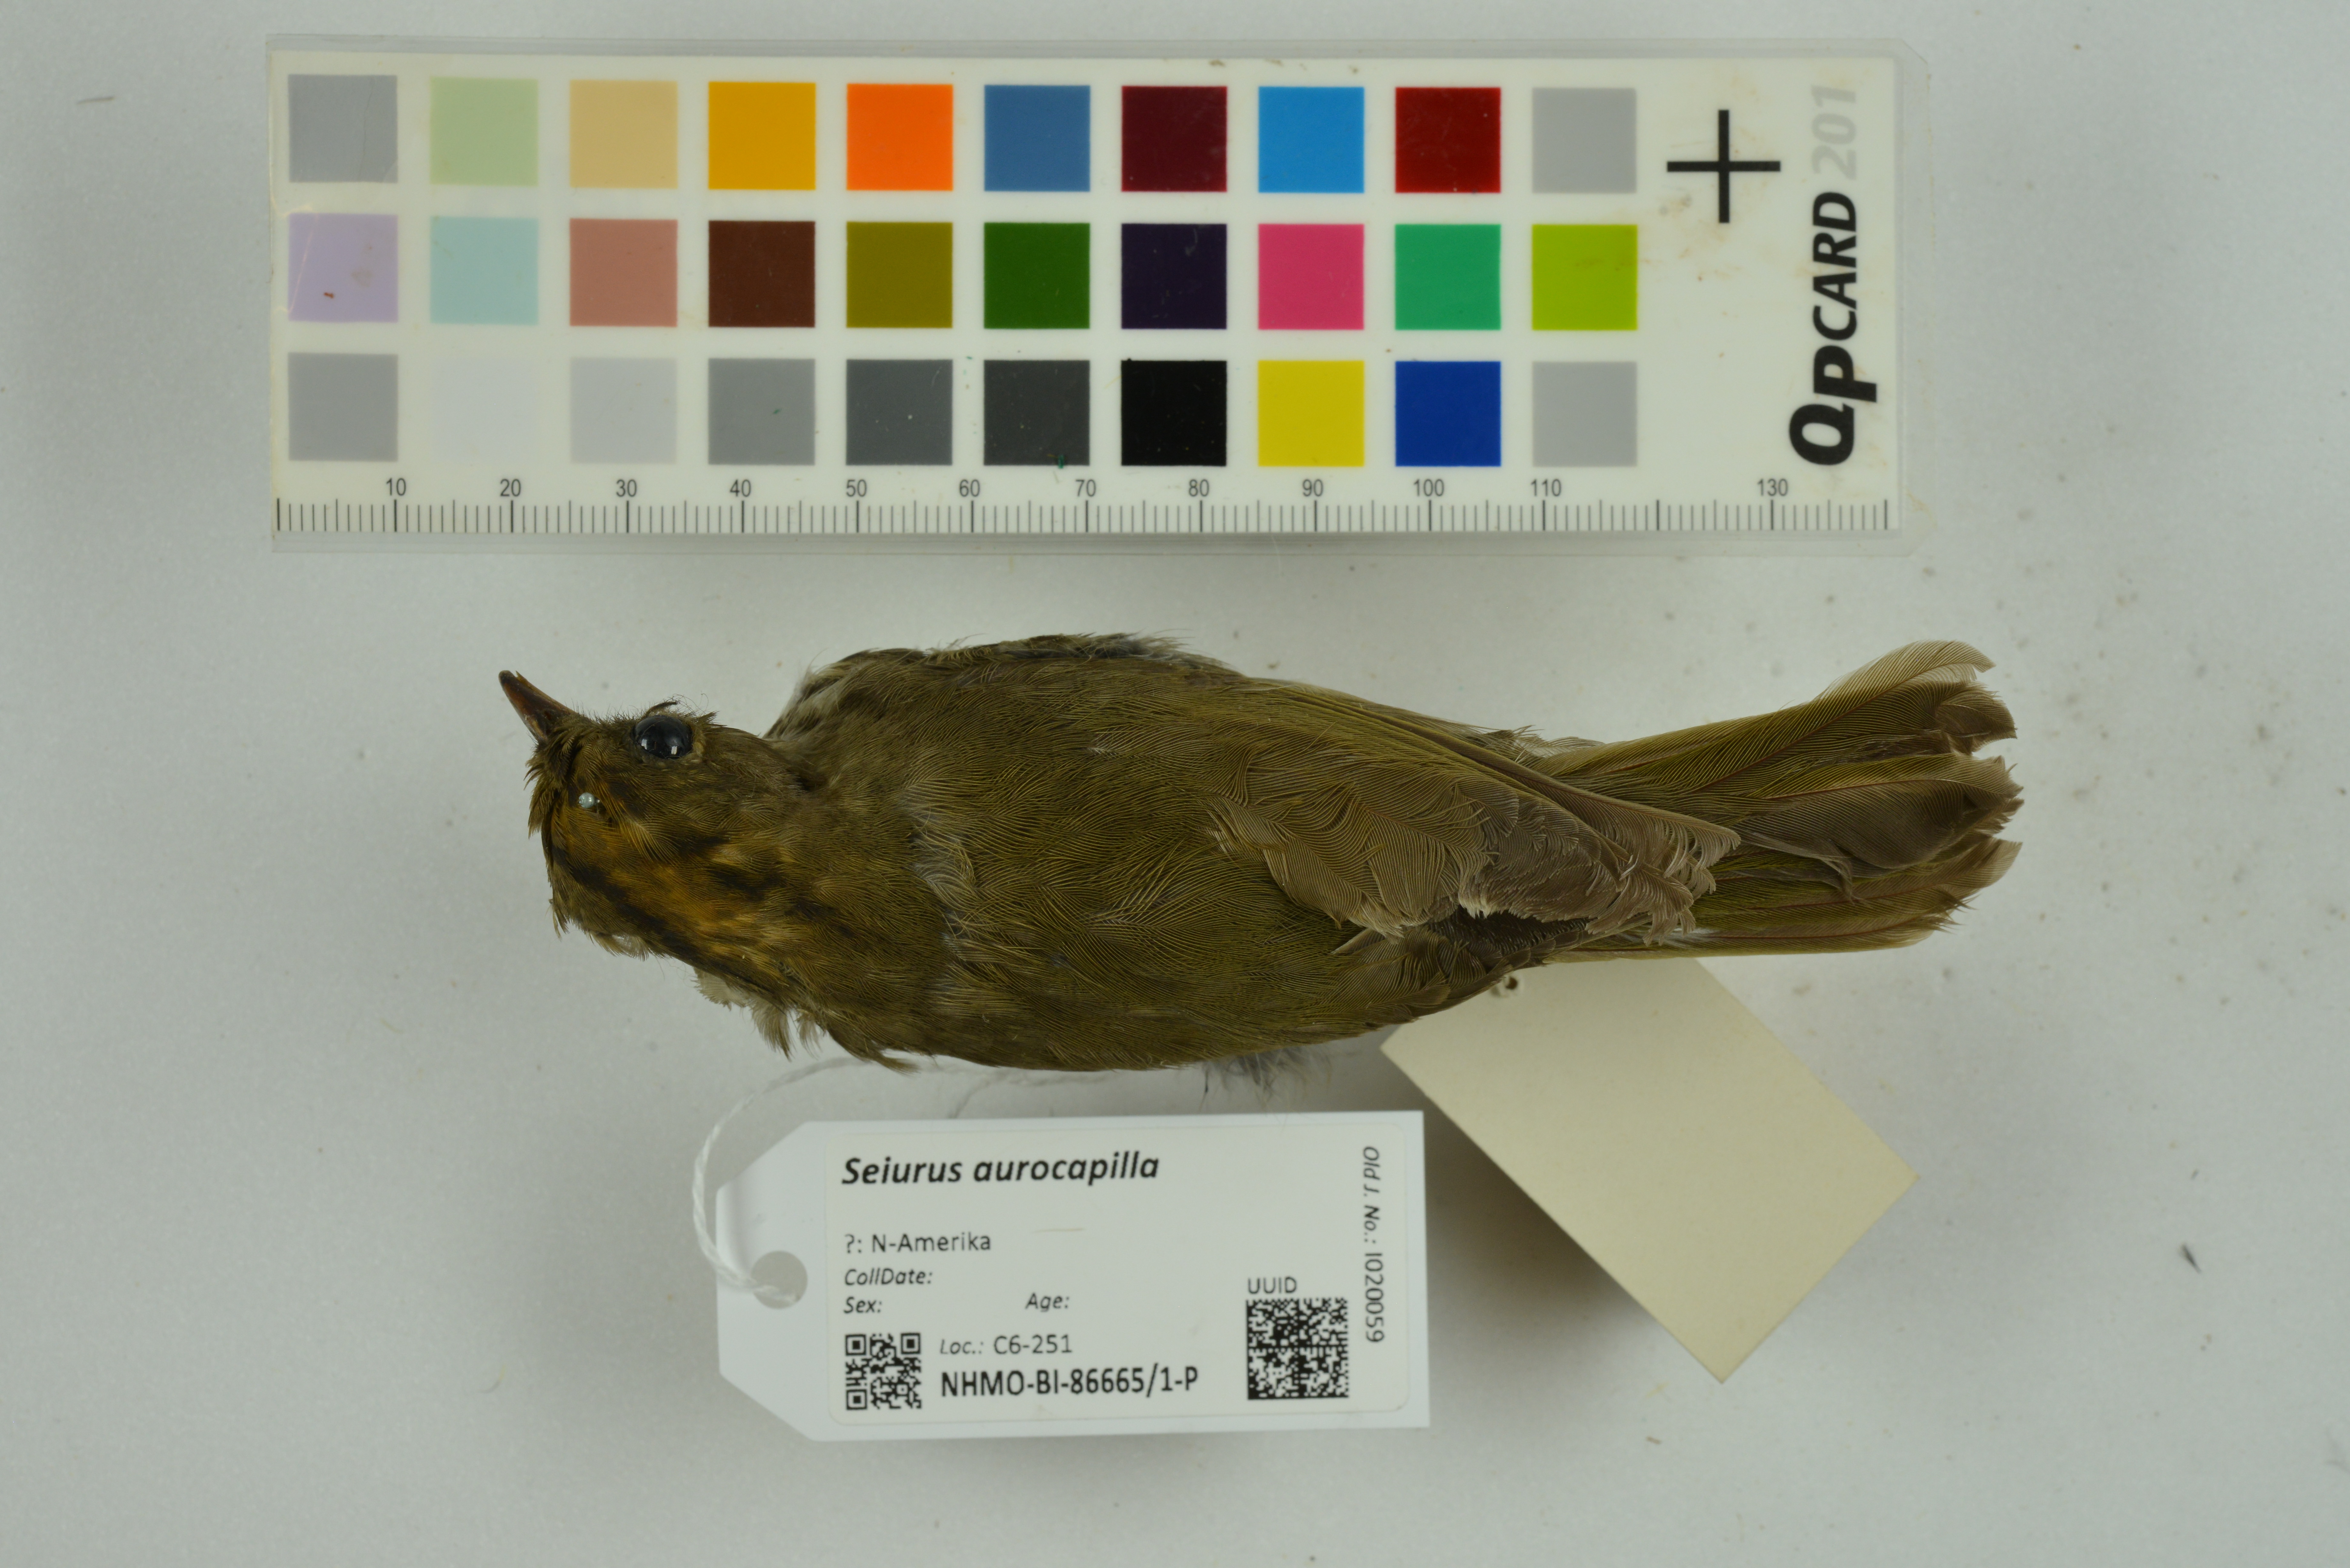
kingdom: Animalia
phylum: Chordata
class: Aves
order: Passeriformes
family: Parulidae
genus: Seiurus
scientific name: Seiurus aurocapilla
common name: Ovenbird
